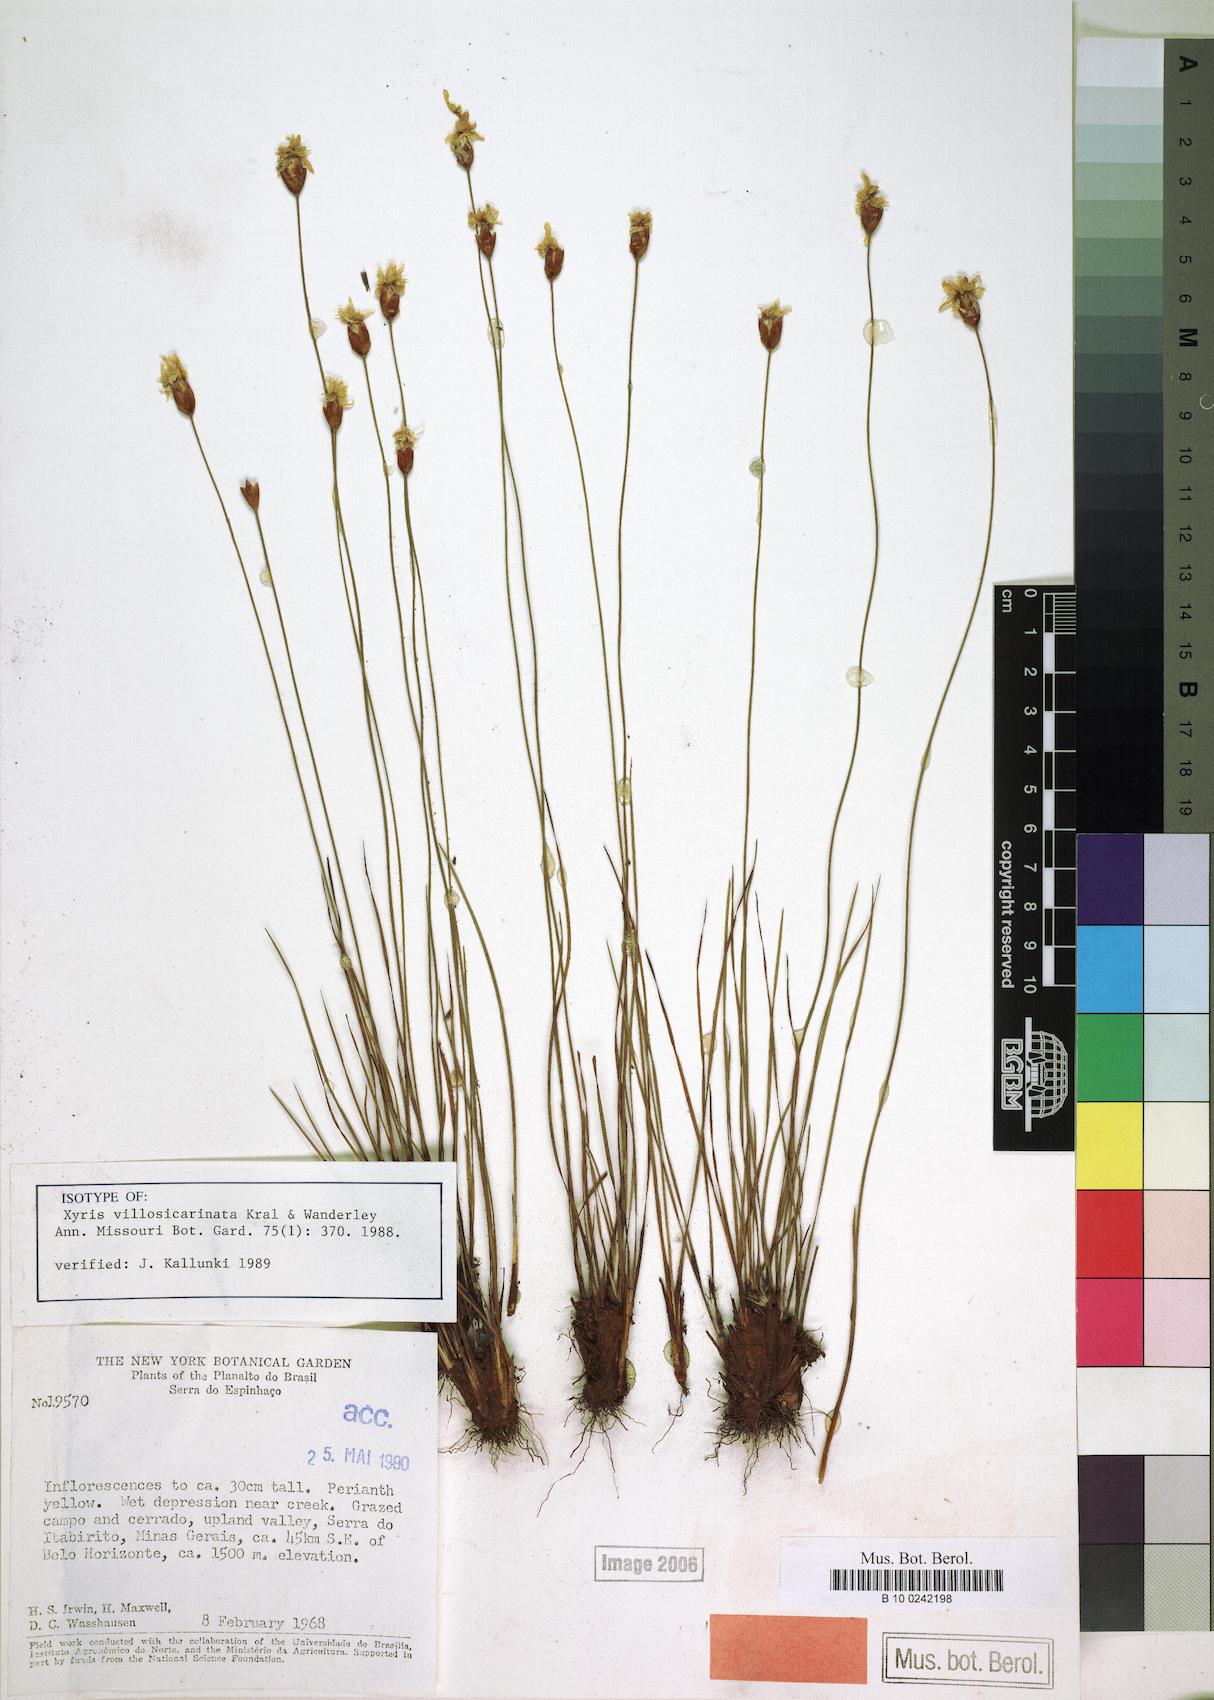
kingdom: Plantae
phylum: Tracheophyta
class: Liliopsida
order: Poales
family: Xyridaceae
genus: Xyris
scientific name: Xyris villosicarinata
